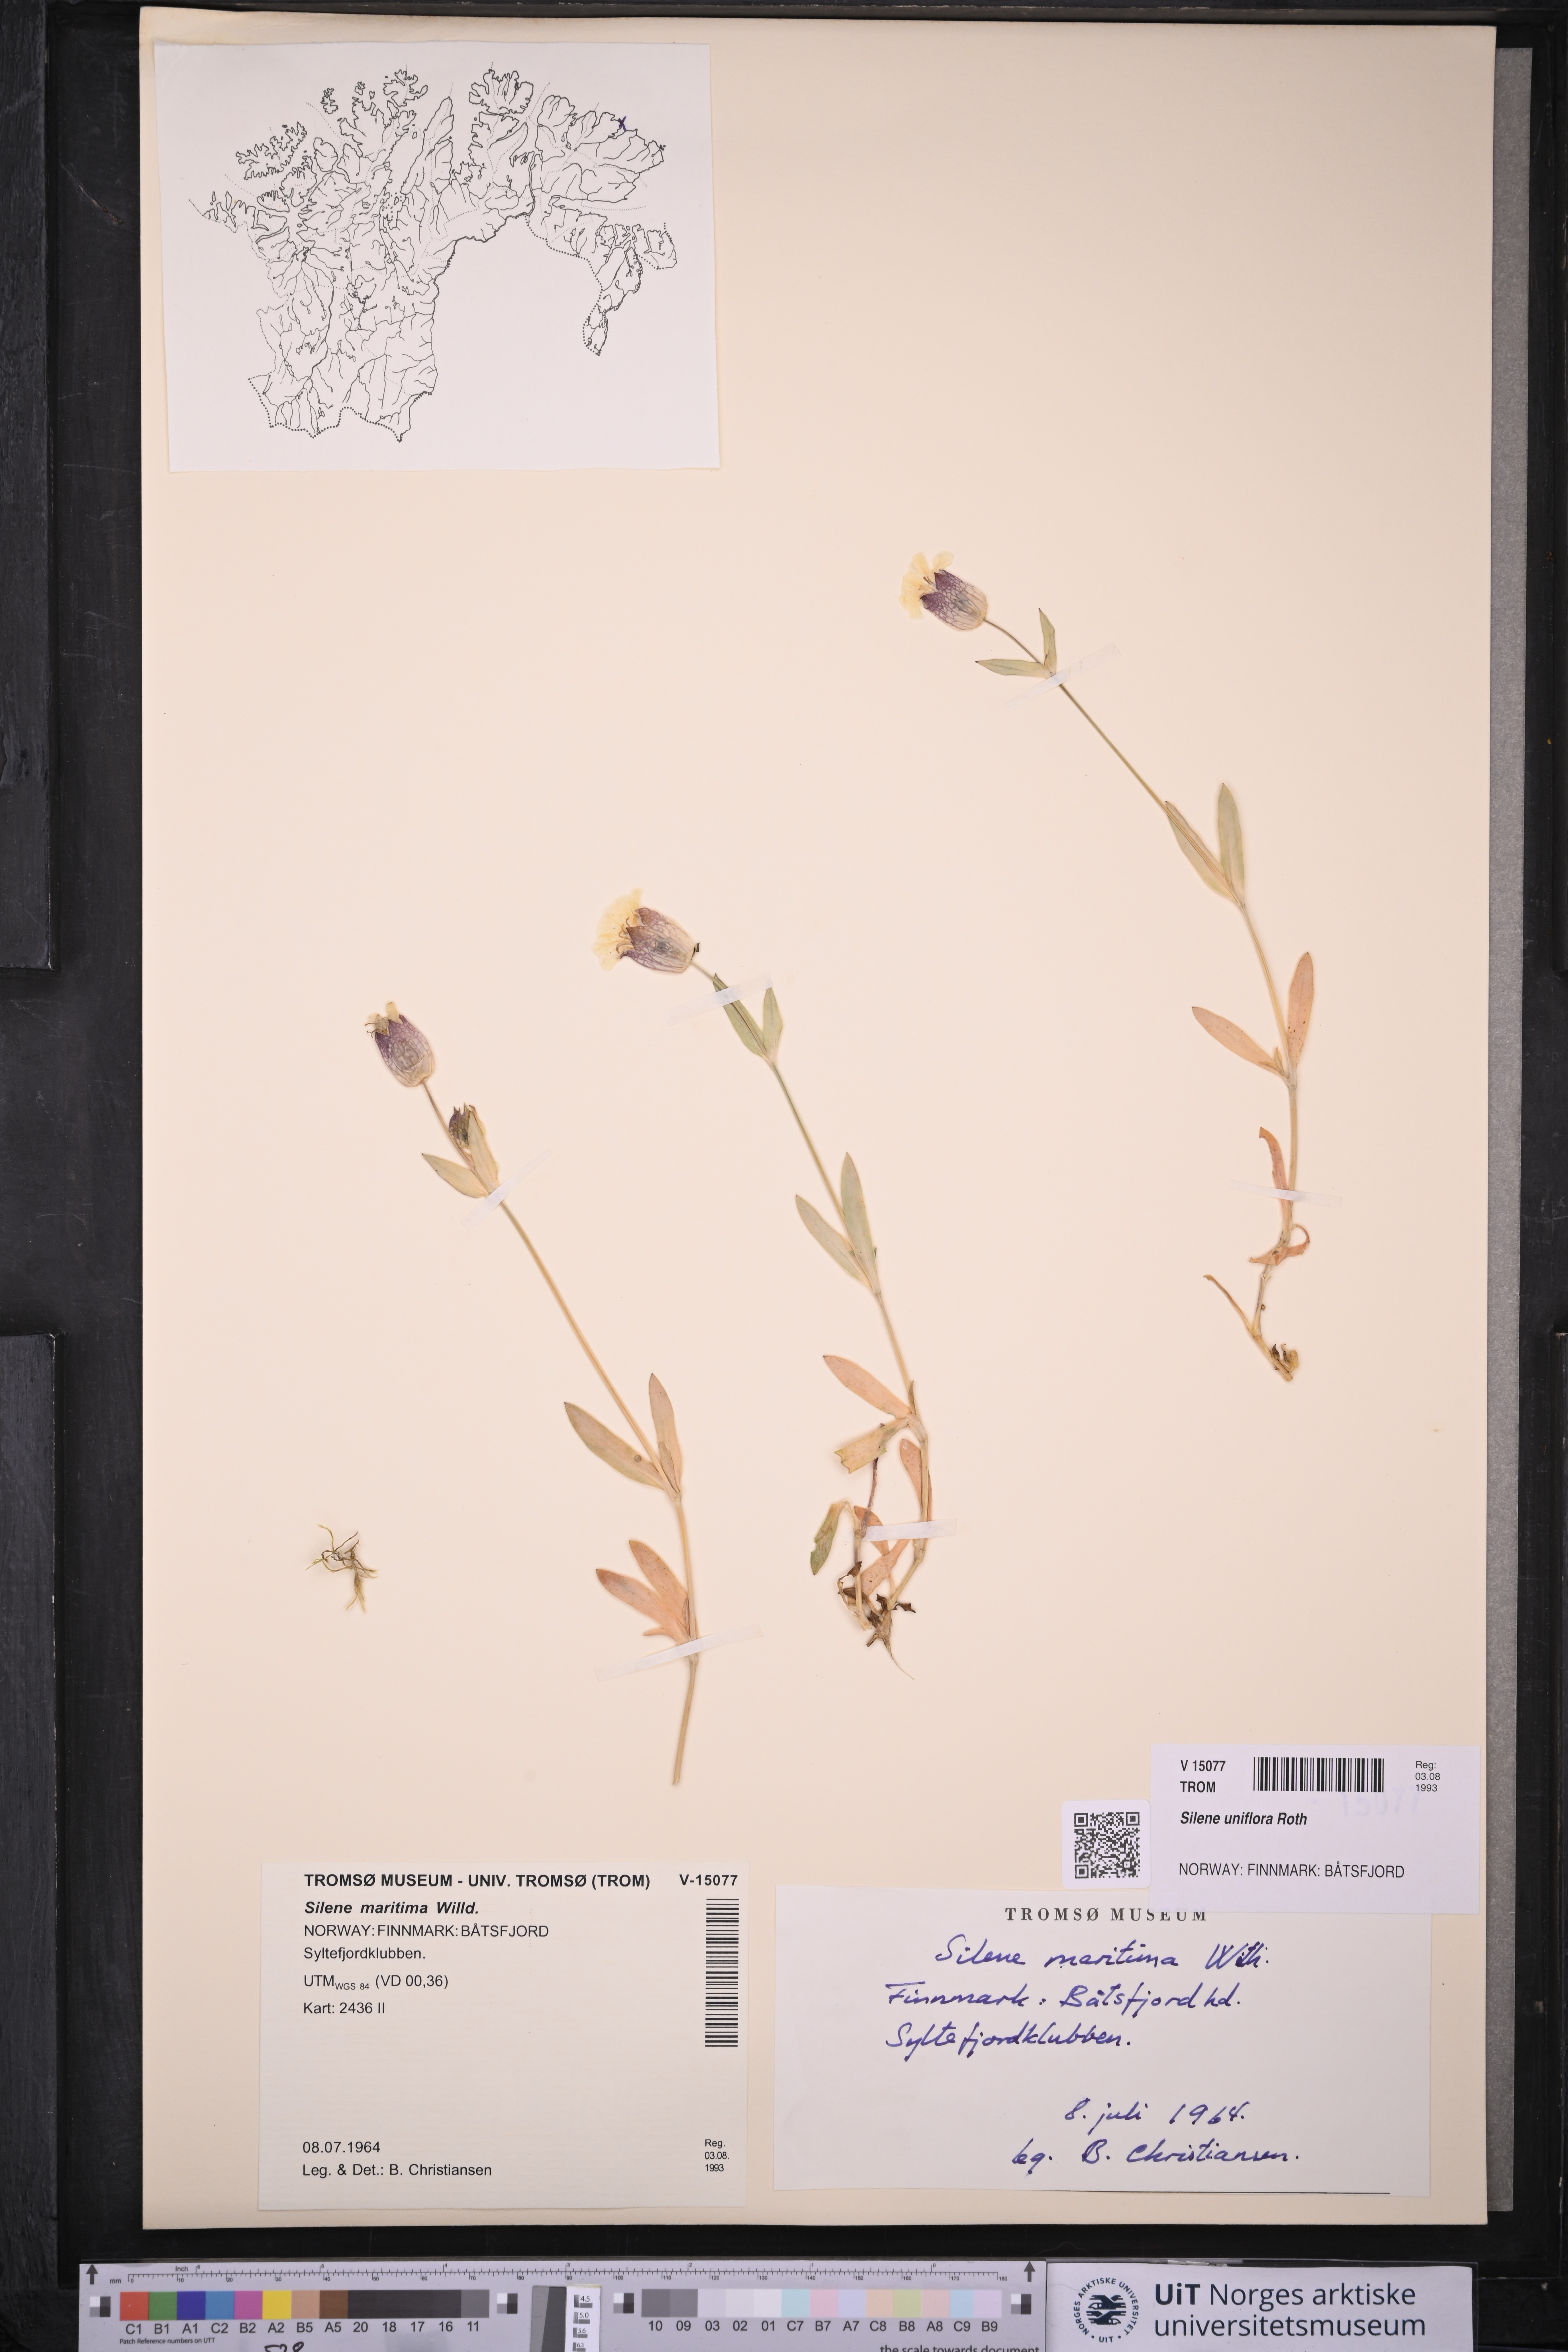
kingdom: Plantae
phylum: Tracheophyta
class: Magnoliopsida
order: Caryophyllales
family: Caryophyllaceae
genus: Silene
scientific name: Silene uniflora
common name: Sea campion
